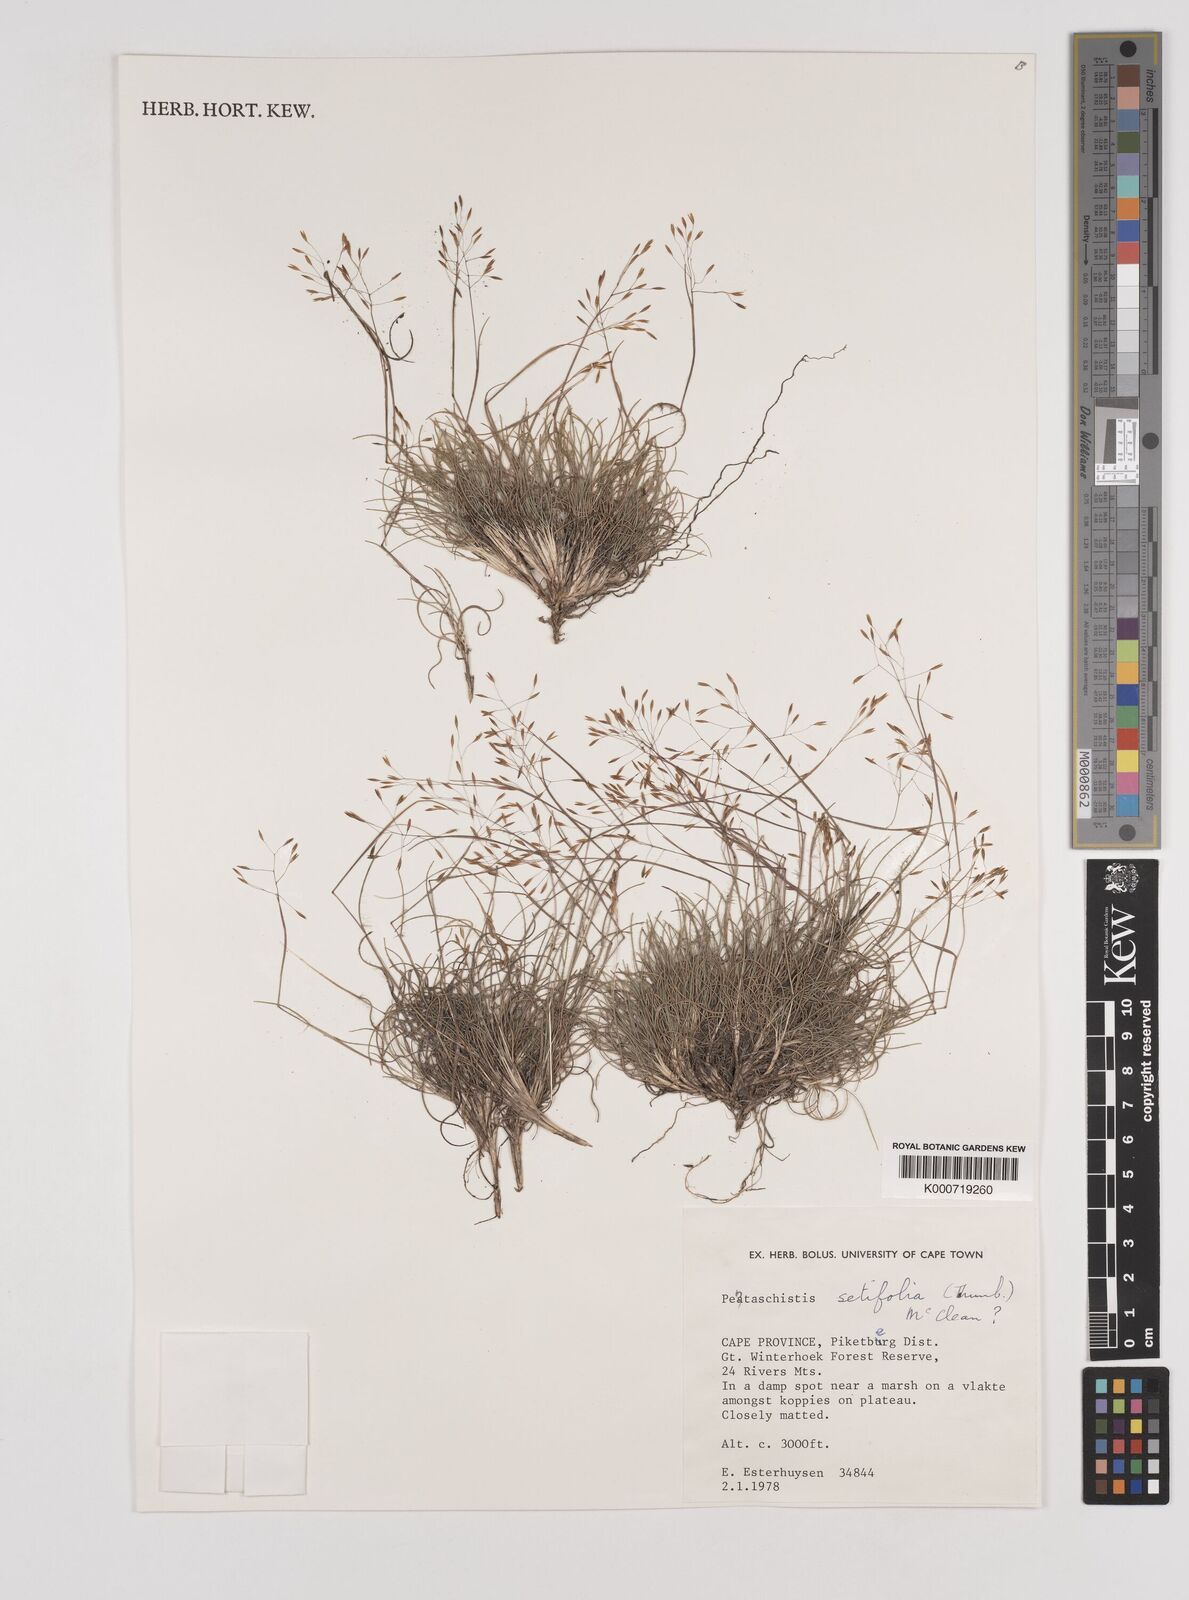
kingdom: Plantae
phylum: Tracheophyta
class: Liliopsida
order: Poales
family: Poaceae
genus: Pentameris
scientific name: Pentameris setifolia
